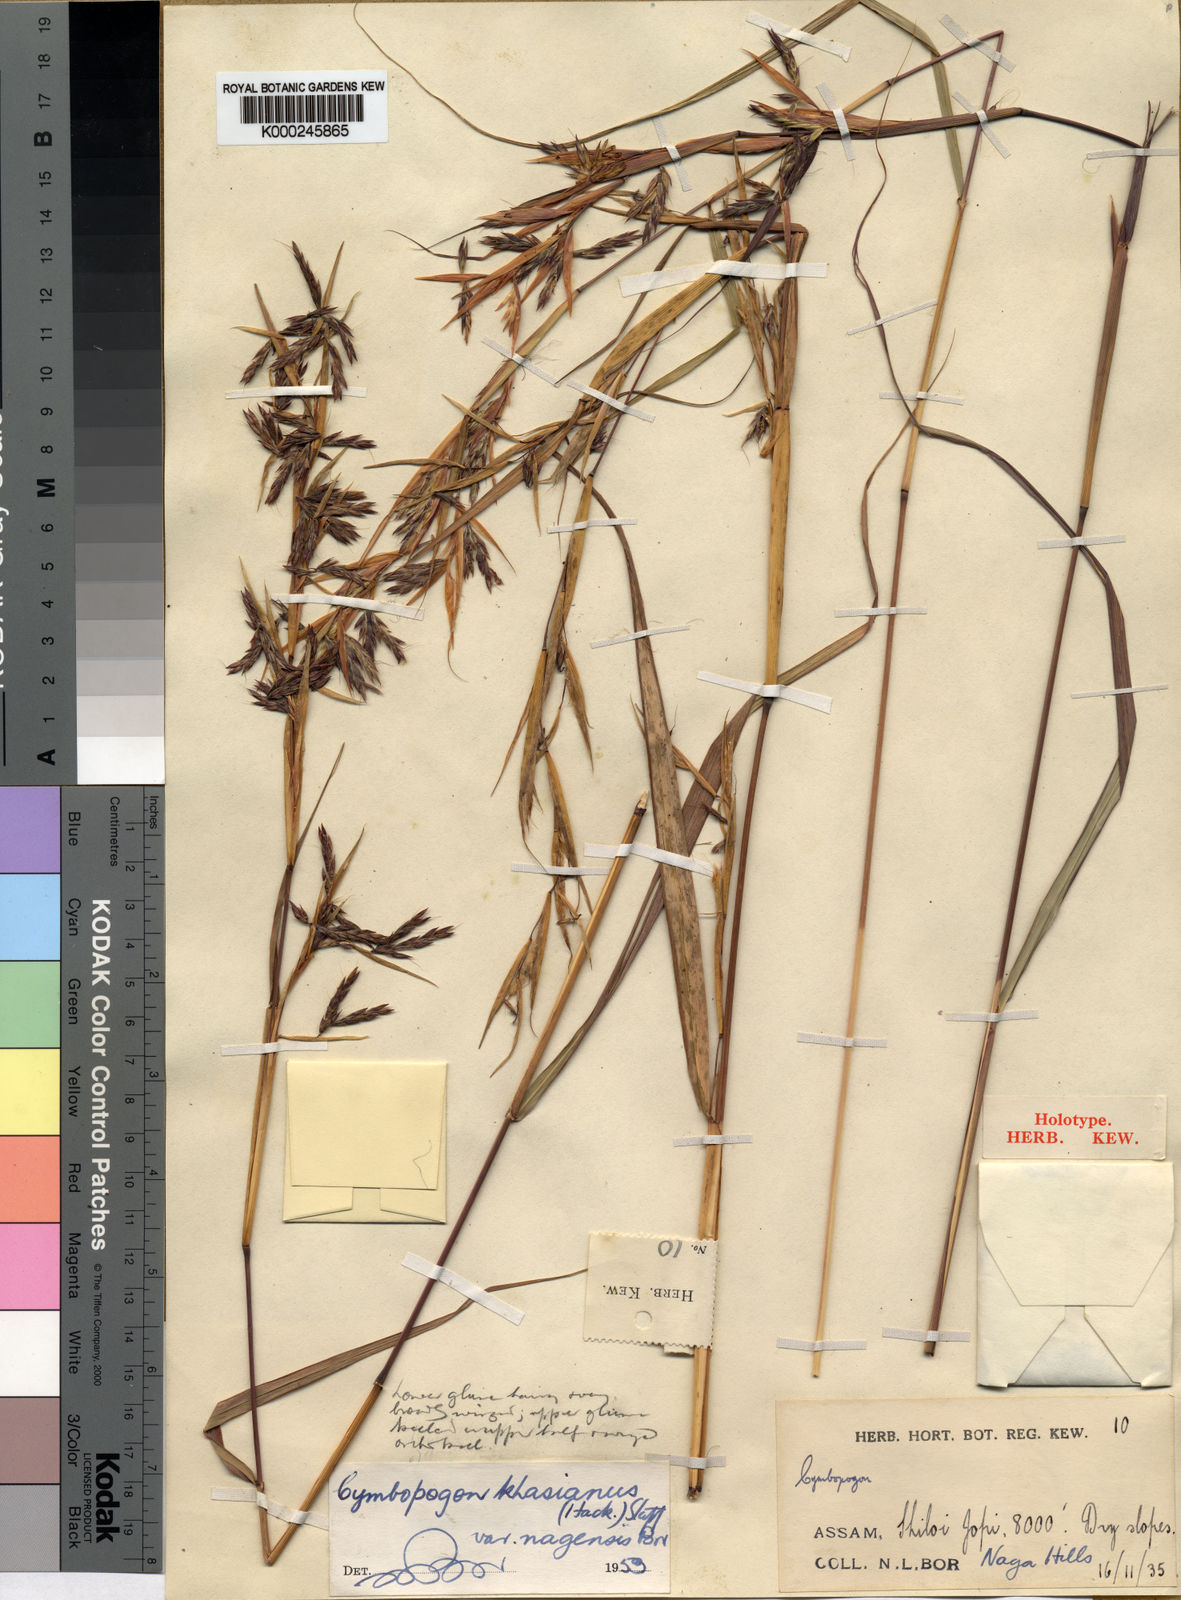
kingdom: Plantae
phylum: Tracheophyta
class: Liliopsida
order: Poales
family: Poaceae
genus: Cymbopogon
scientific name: Cymbopogon traninhensis
